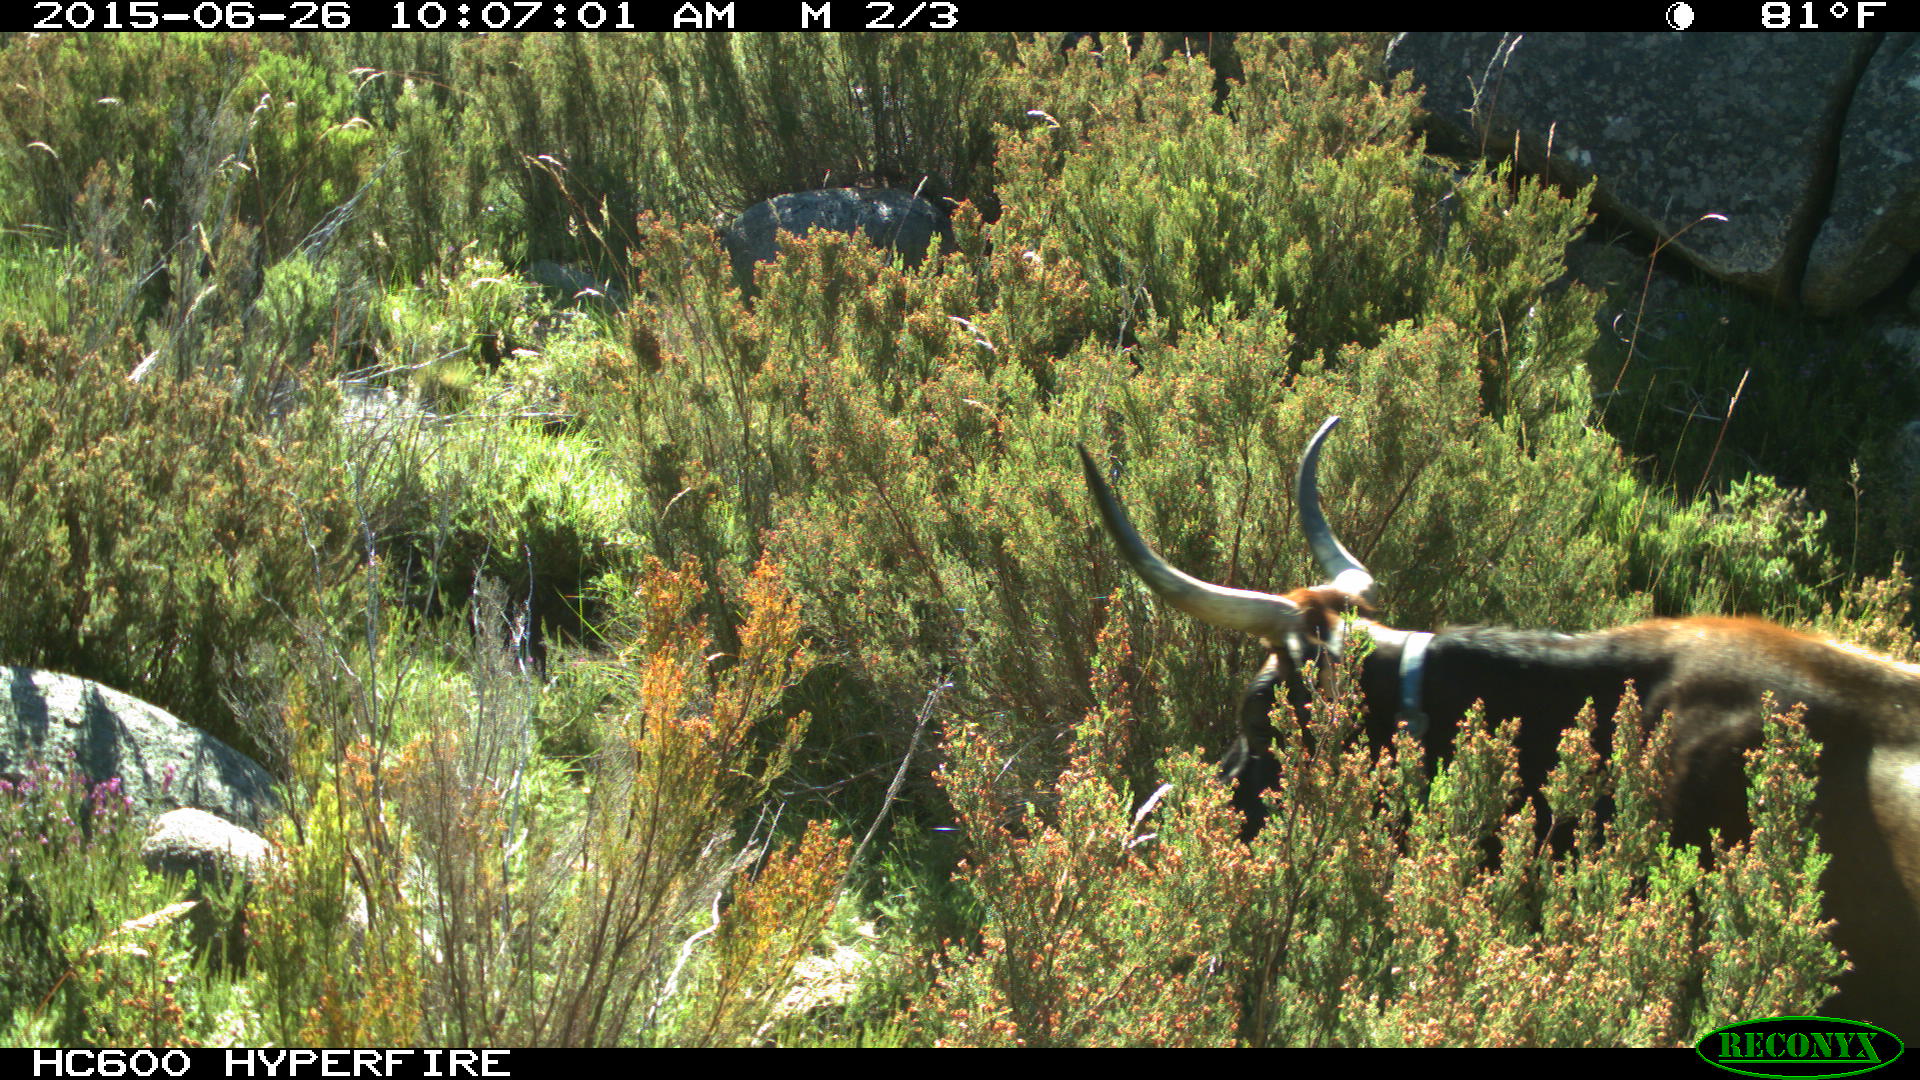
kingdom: Animalia
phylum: Chordata
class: Mammalia
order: Artiodactyla
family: Bovidae
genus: Bos
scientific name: Bos taurus
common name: Domesticated cattle
